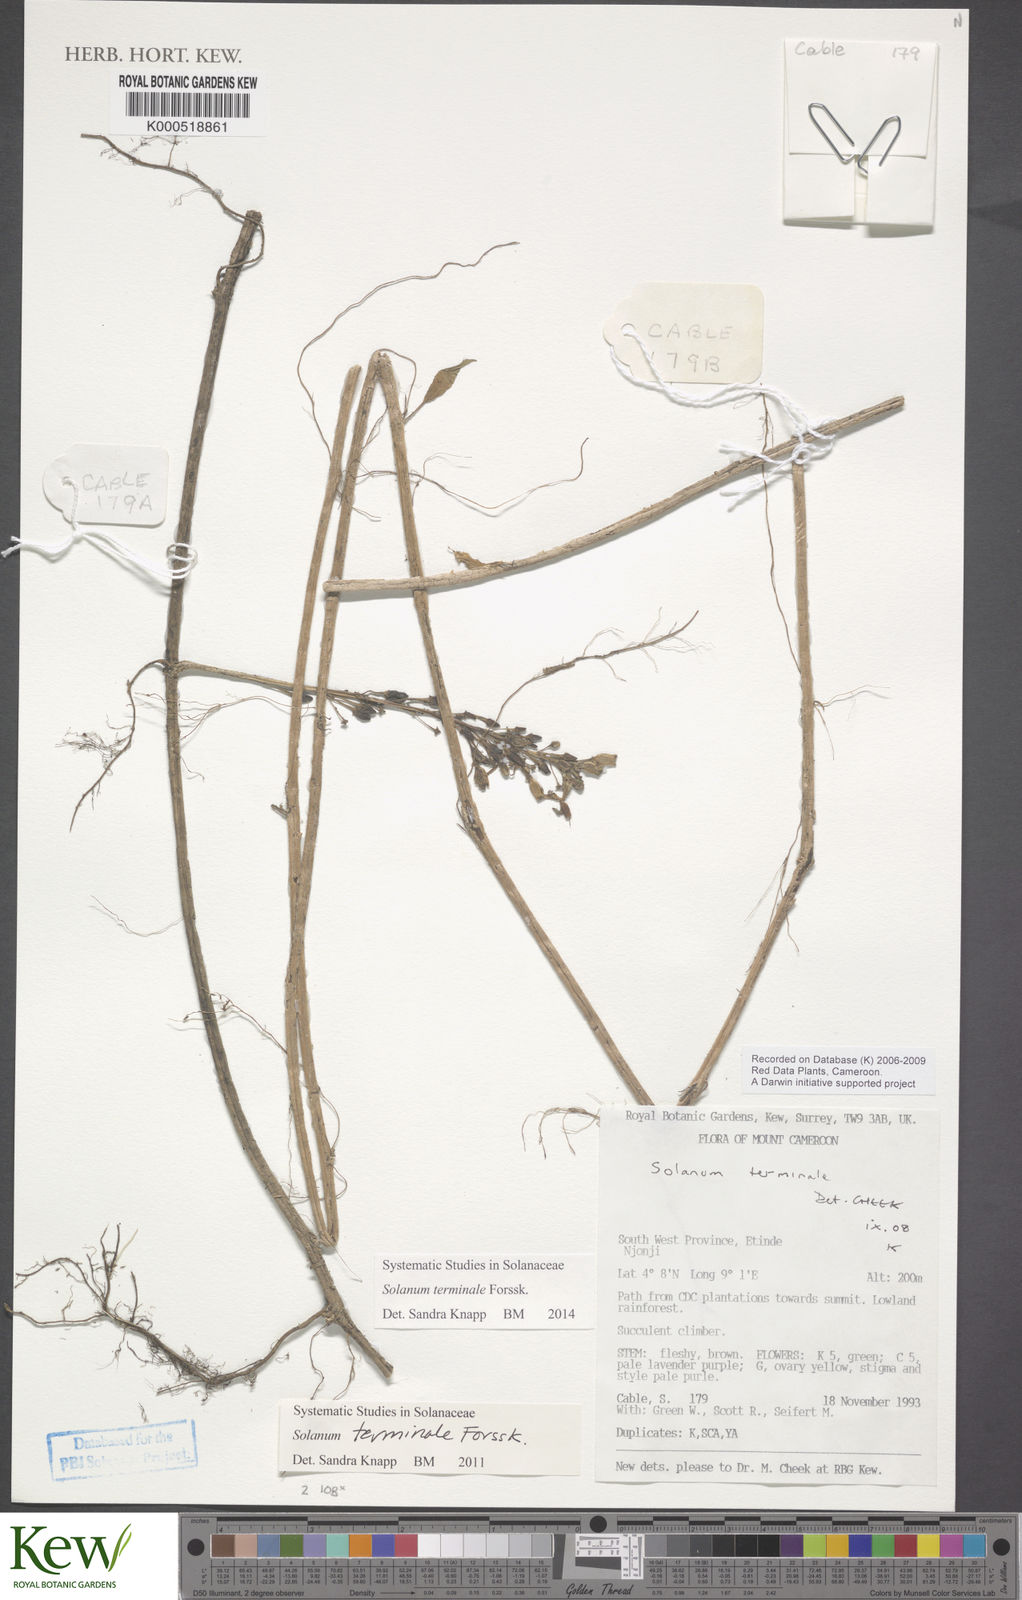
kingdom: Plantae
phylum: Tracheophyta
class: Magnoliopsida
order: Solanales
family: Solanaceae
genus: Solanum
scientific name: Solanum terminale
